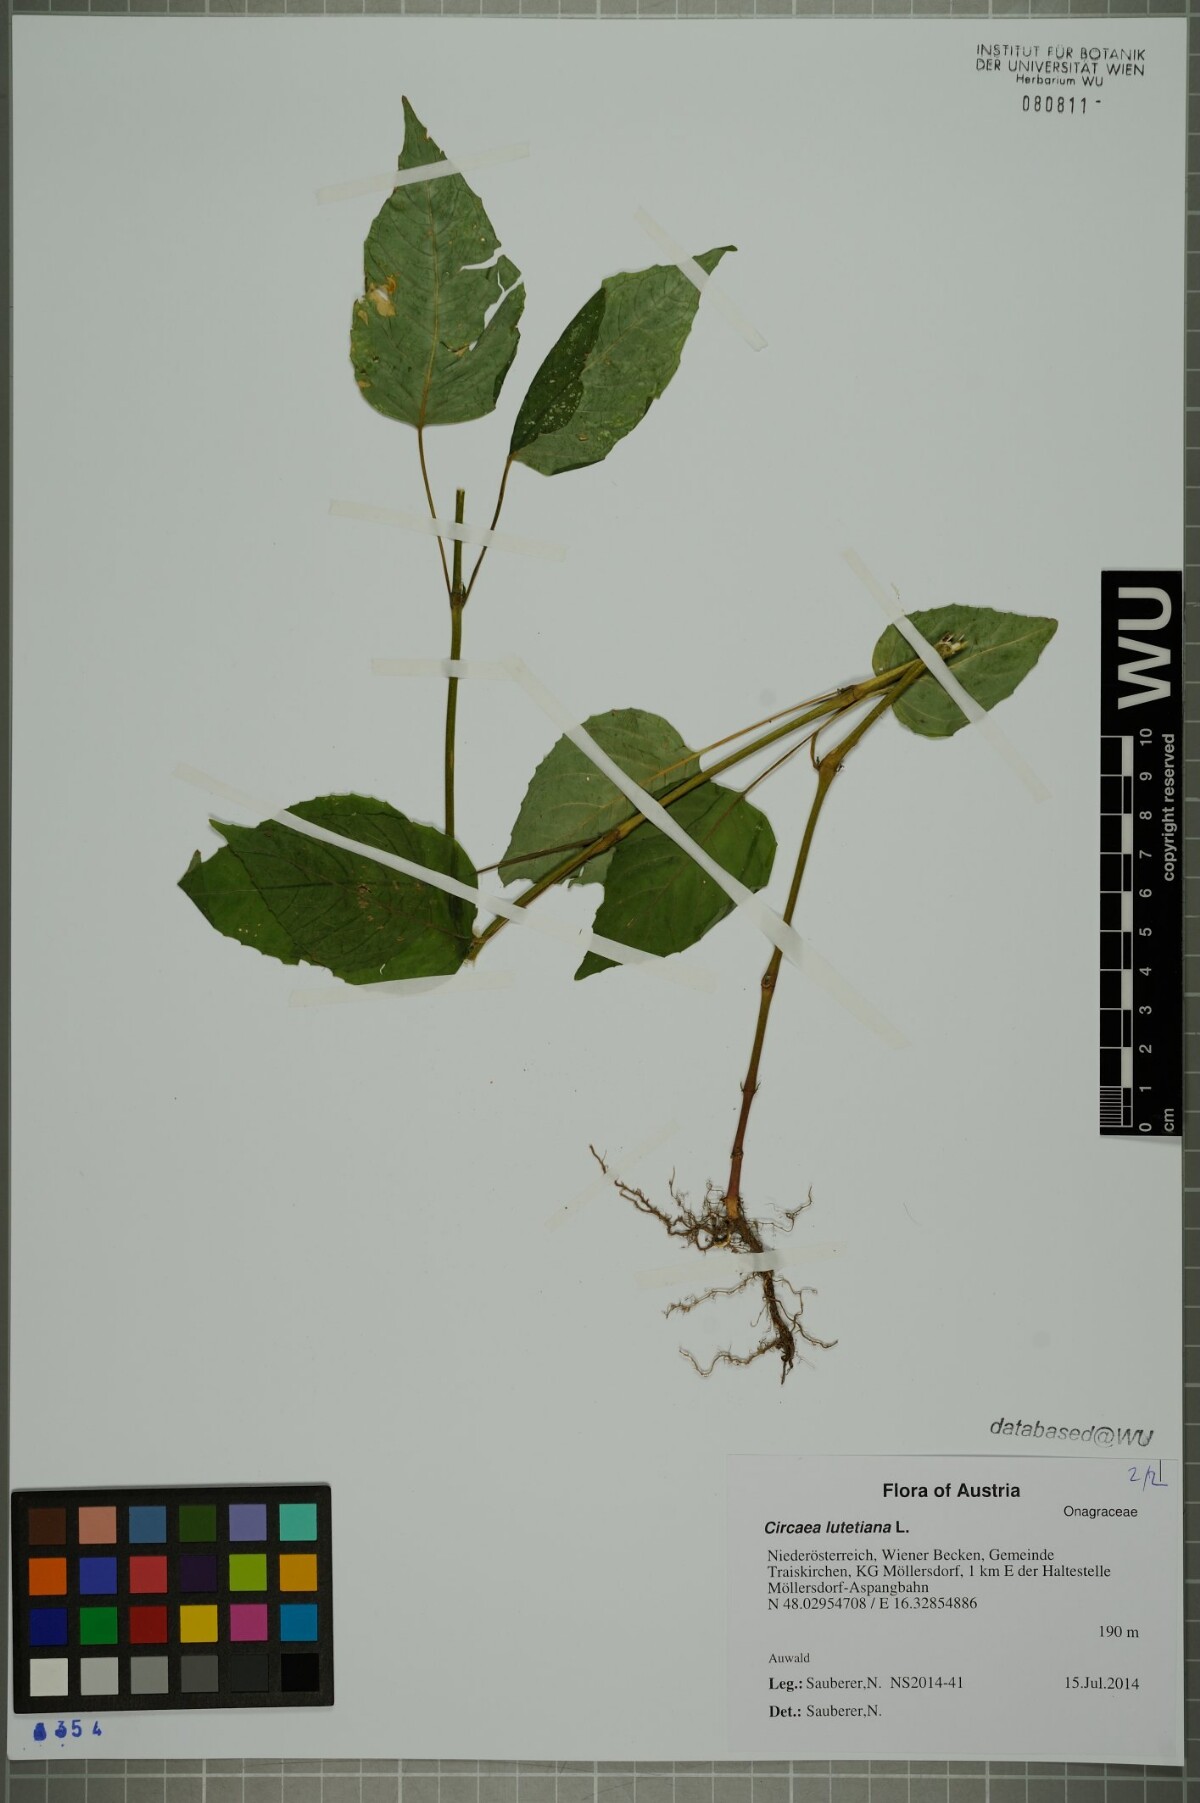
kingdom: Plantae
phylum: Tracheophyta
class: Magnoliopsida
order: Myrtales
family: Onagraceae
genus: Circaea
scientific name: Circaea lutetiana
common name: Enchanter's-nightshade
